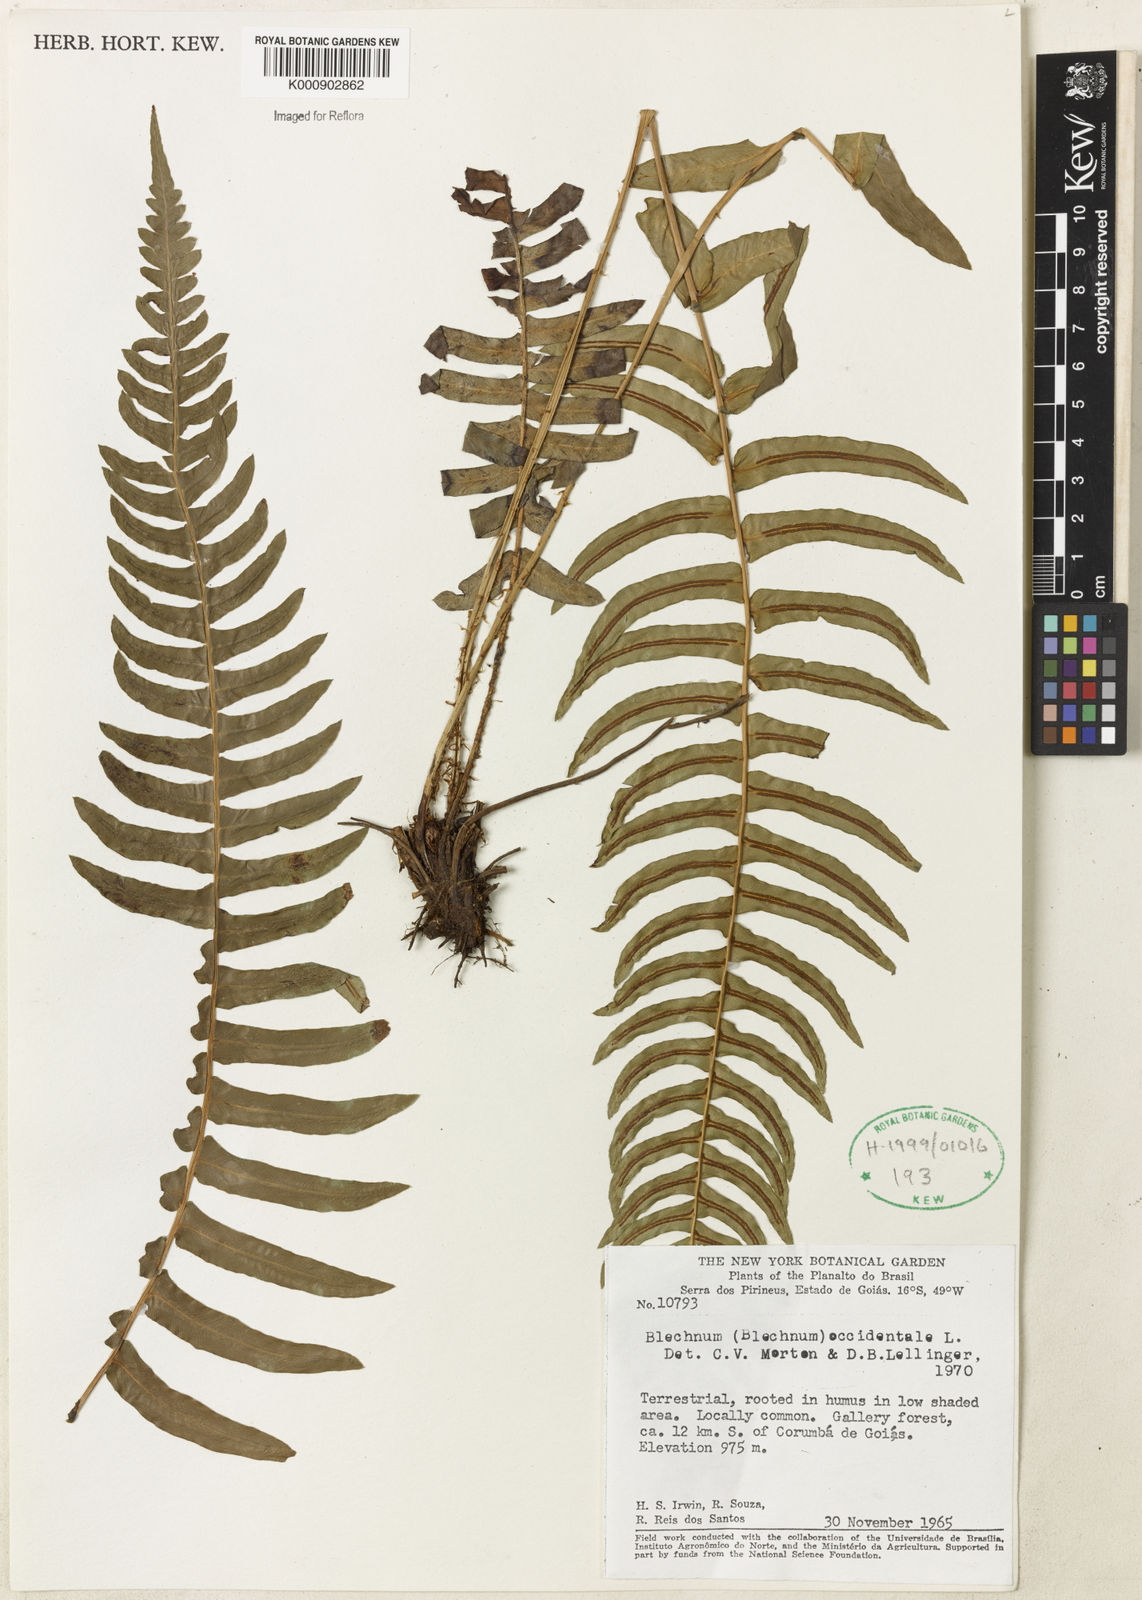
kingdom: Plantae
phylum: Tracheophyta
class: Polypodiopsida
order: Polypodiales
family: Blechnaceae
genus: Blechnum
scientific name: Blechnum occidentale
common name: Hammock fern
